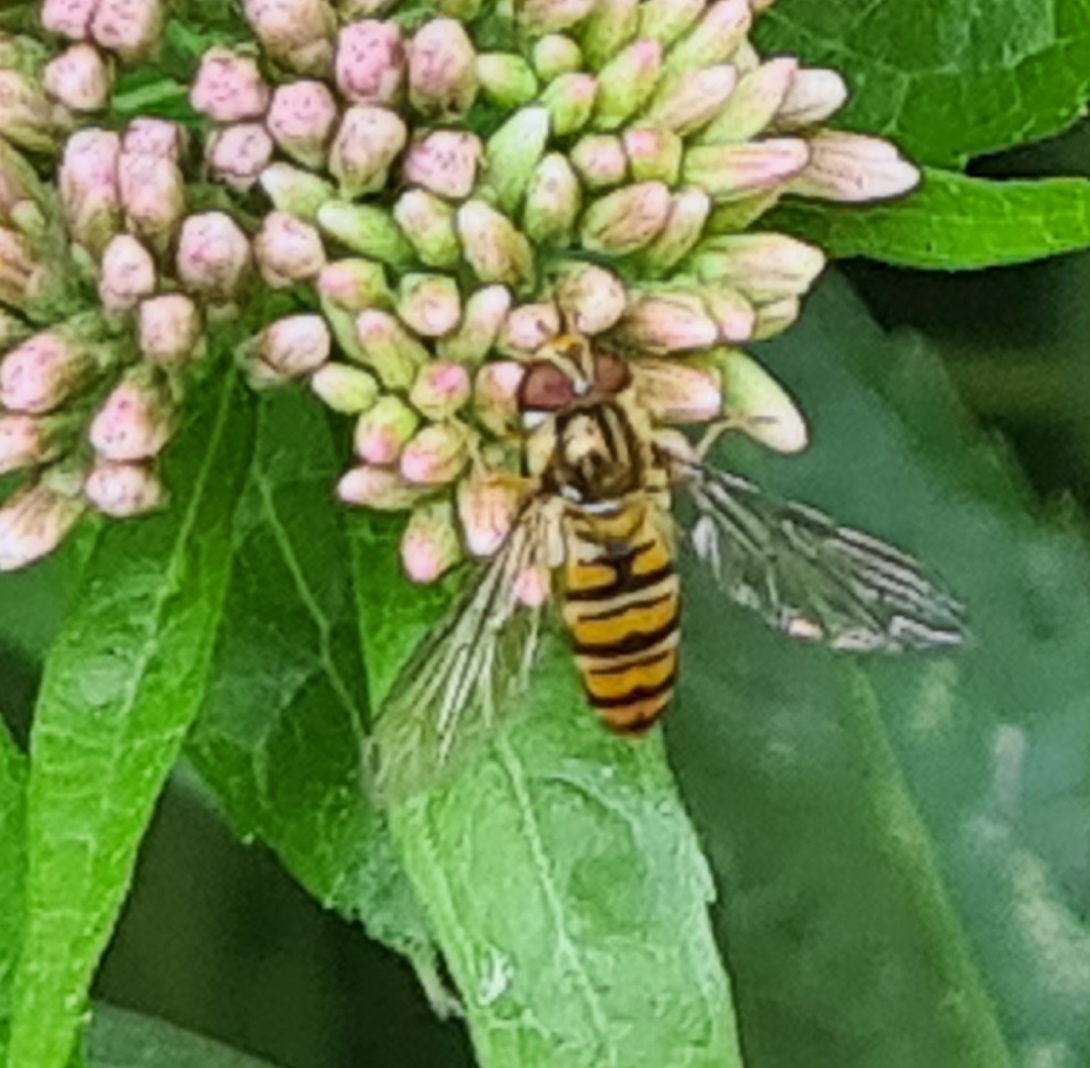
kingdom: Animalia
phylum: Arthropoda
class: Insecta
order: Diptera
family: Syrphidae
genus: Episyrphus
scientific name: Episyrphus balteatus
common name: Dobbeltbåndet svirreflue
